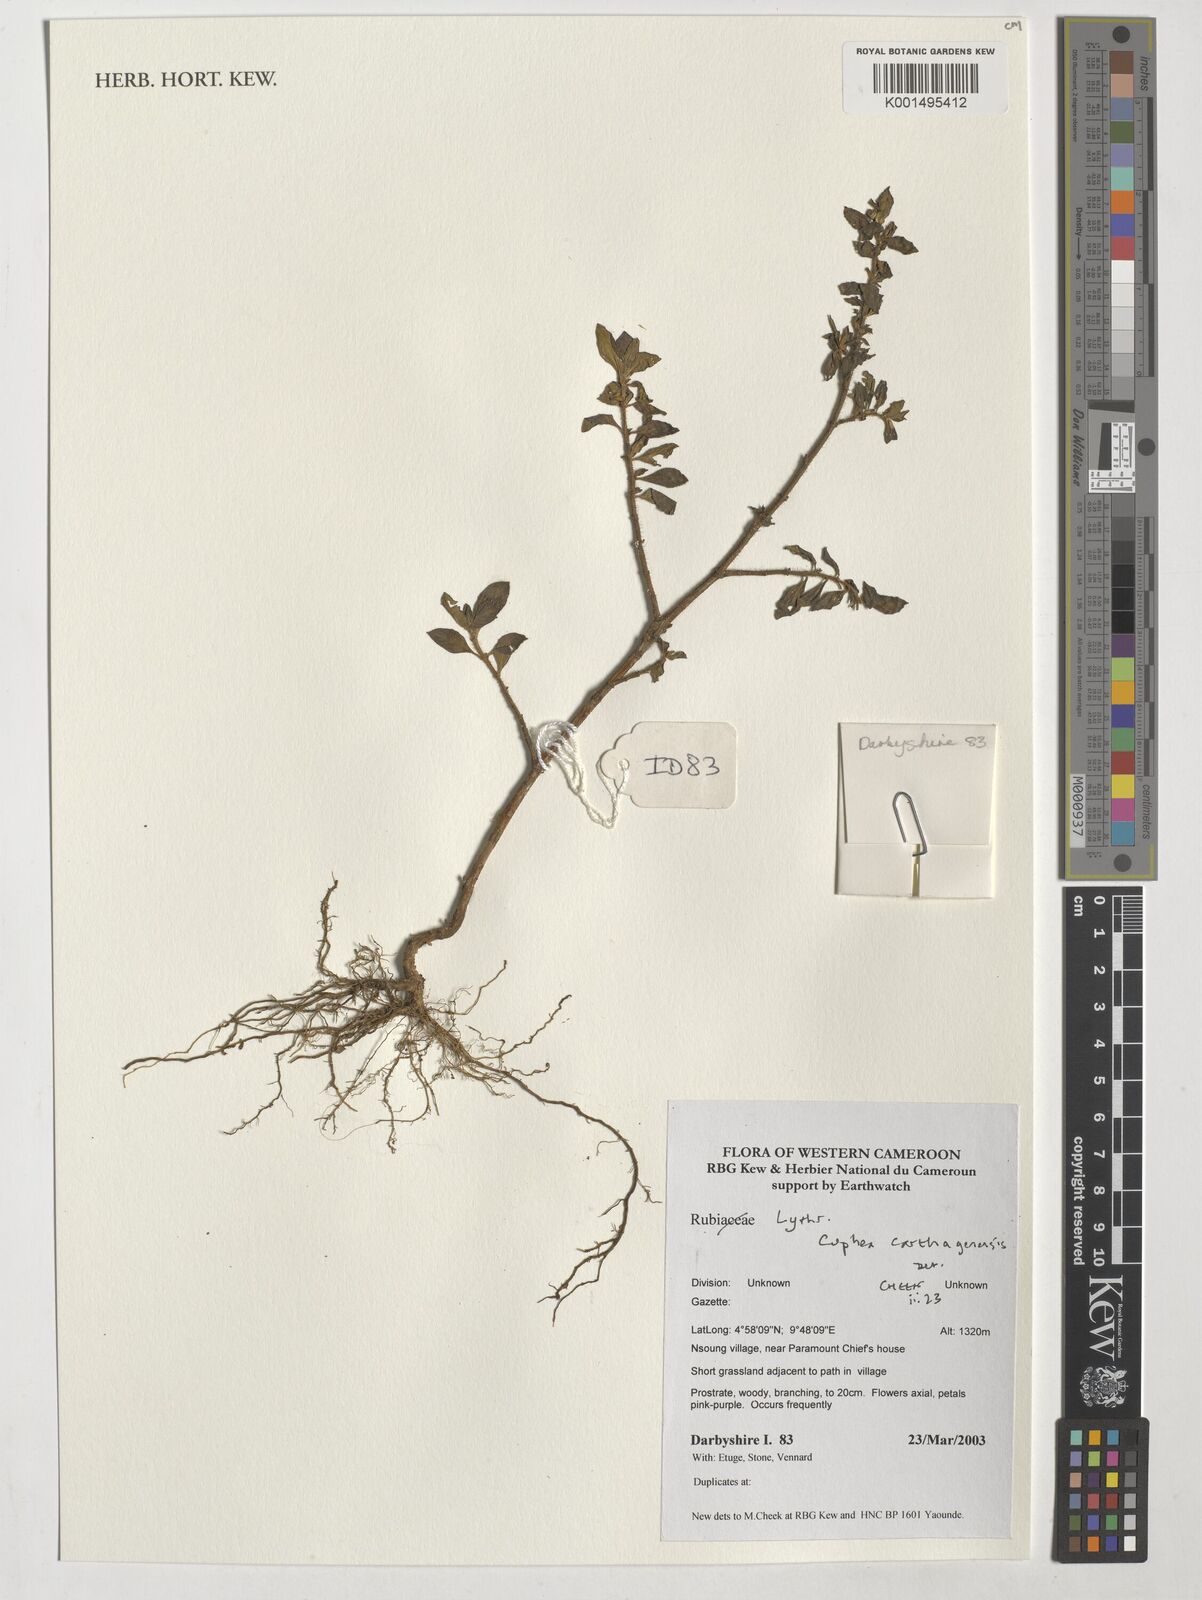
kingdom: Plantae
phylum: Tracheophyta
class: Magnoliopsida
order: Myrtales
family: Lythraceae
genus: Cuphea
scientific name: Cuphea carthagenensis
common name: Colombian waxweed
